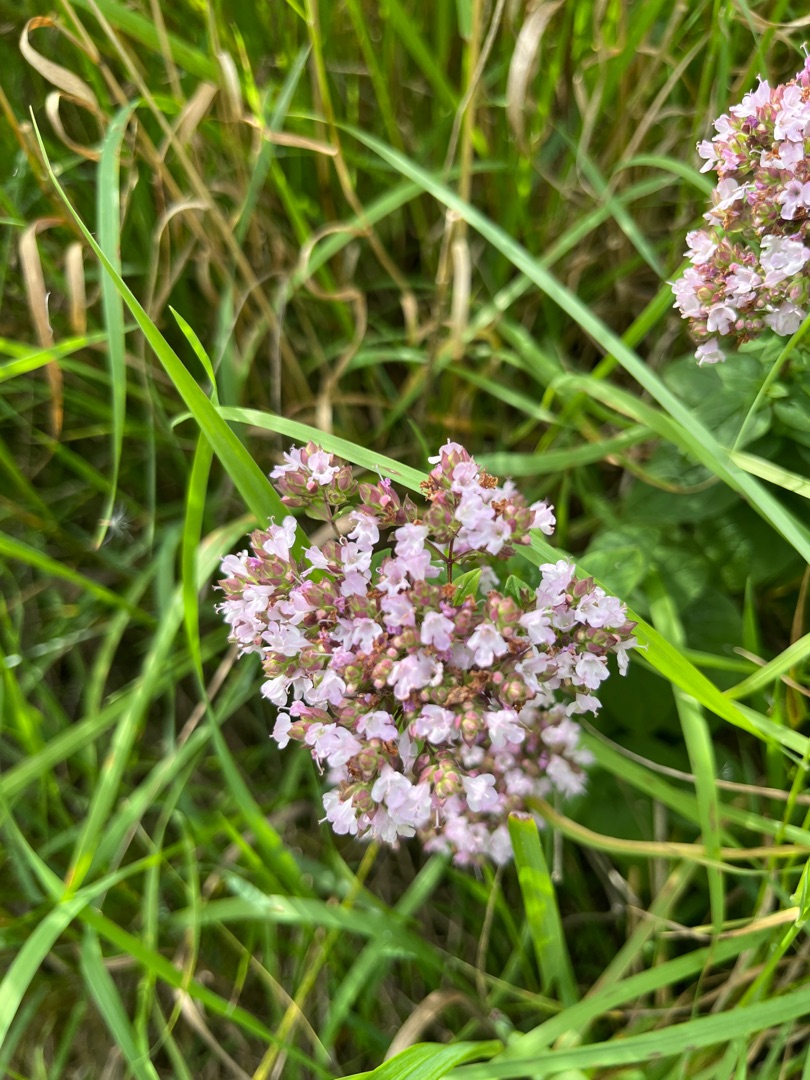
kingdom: Plantae
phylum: Tracheophyta
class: Magnoliopsida
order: Lamiales
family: Lamiaceae
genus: Origanum
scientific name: Origanum vulgare
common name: Merian
